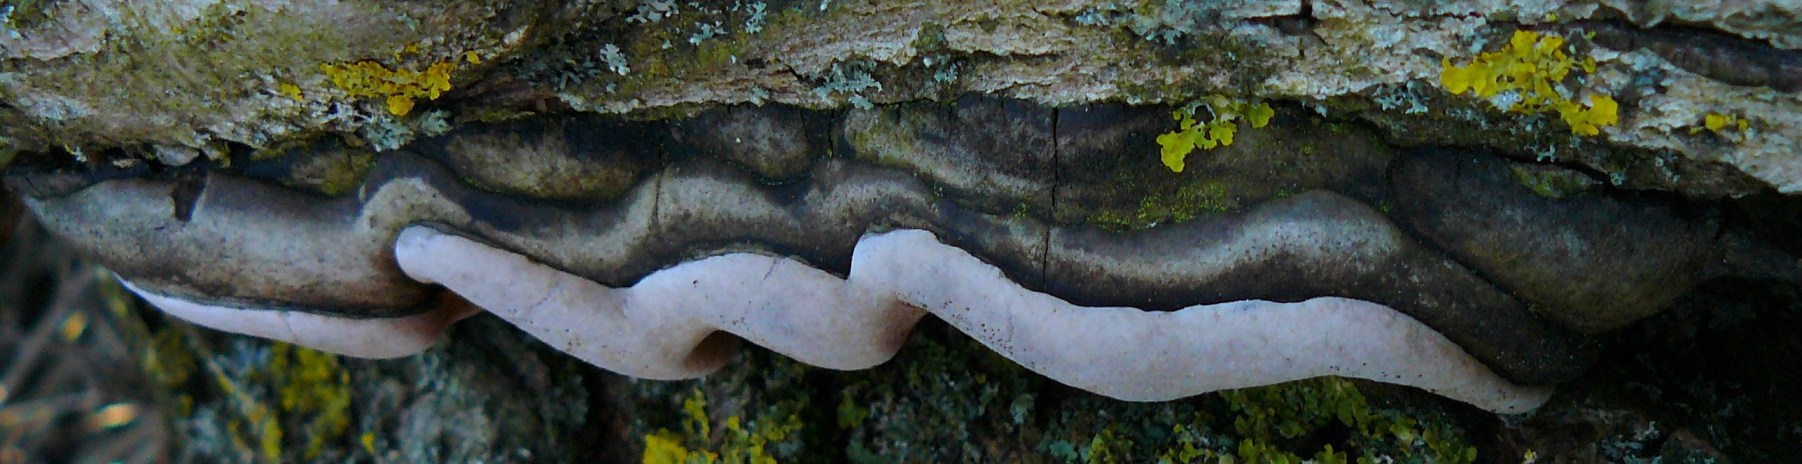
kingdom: Fungi
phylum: Basidiomycota
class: Agaricomycetes
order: Hymenochaetales
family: Hymenochaetaceae
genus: Phellinus
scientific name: Phellinus igniarius
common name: almindelig ildporesvamp
